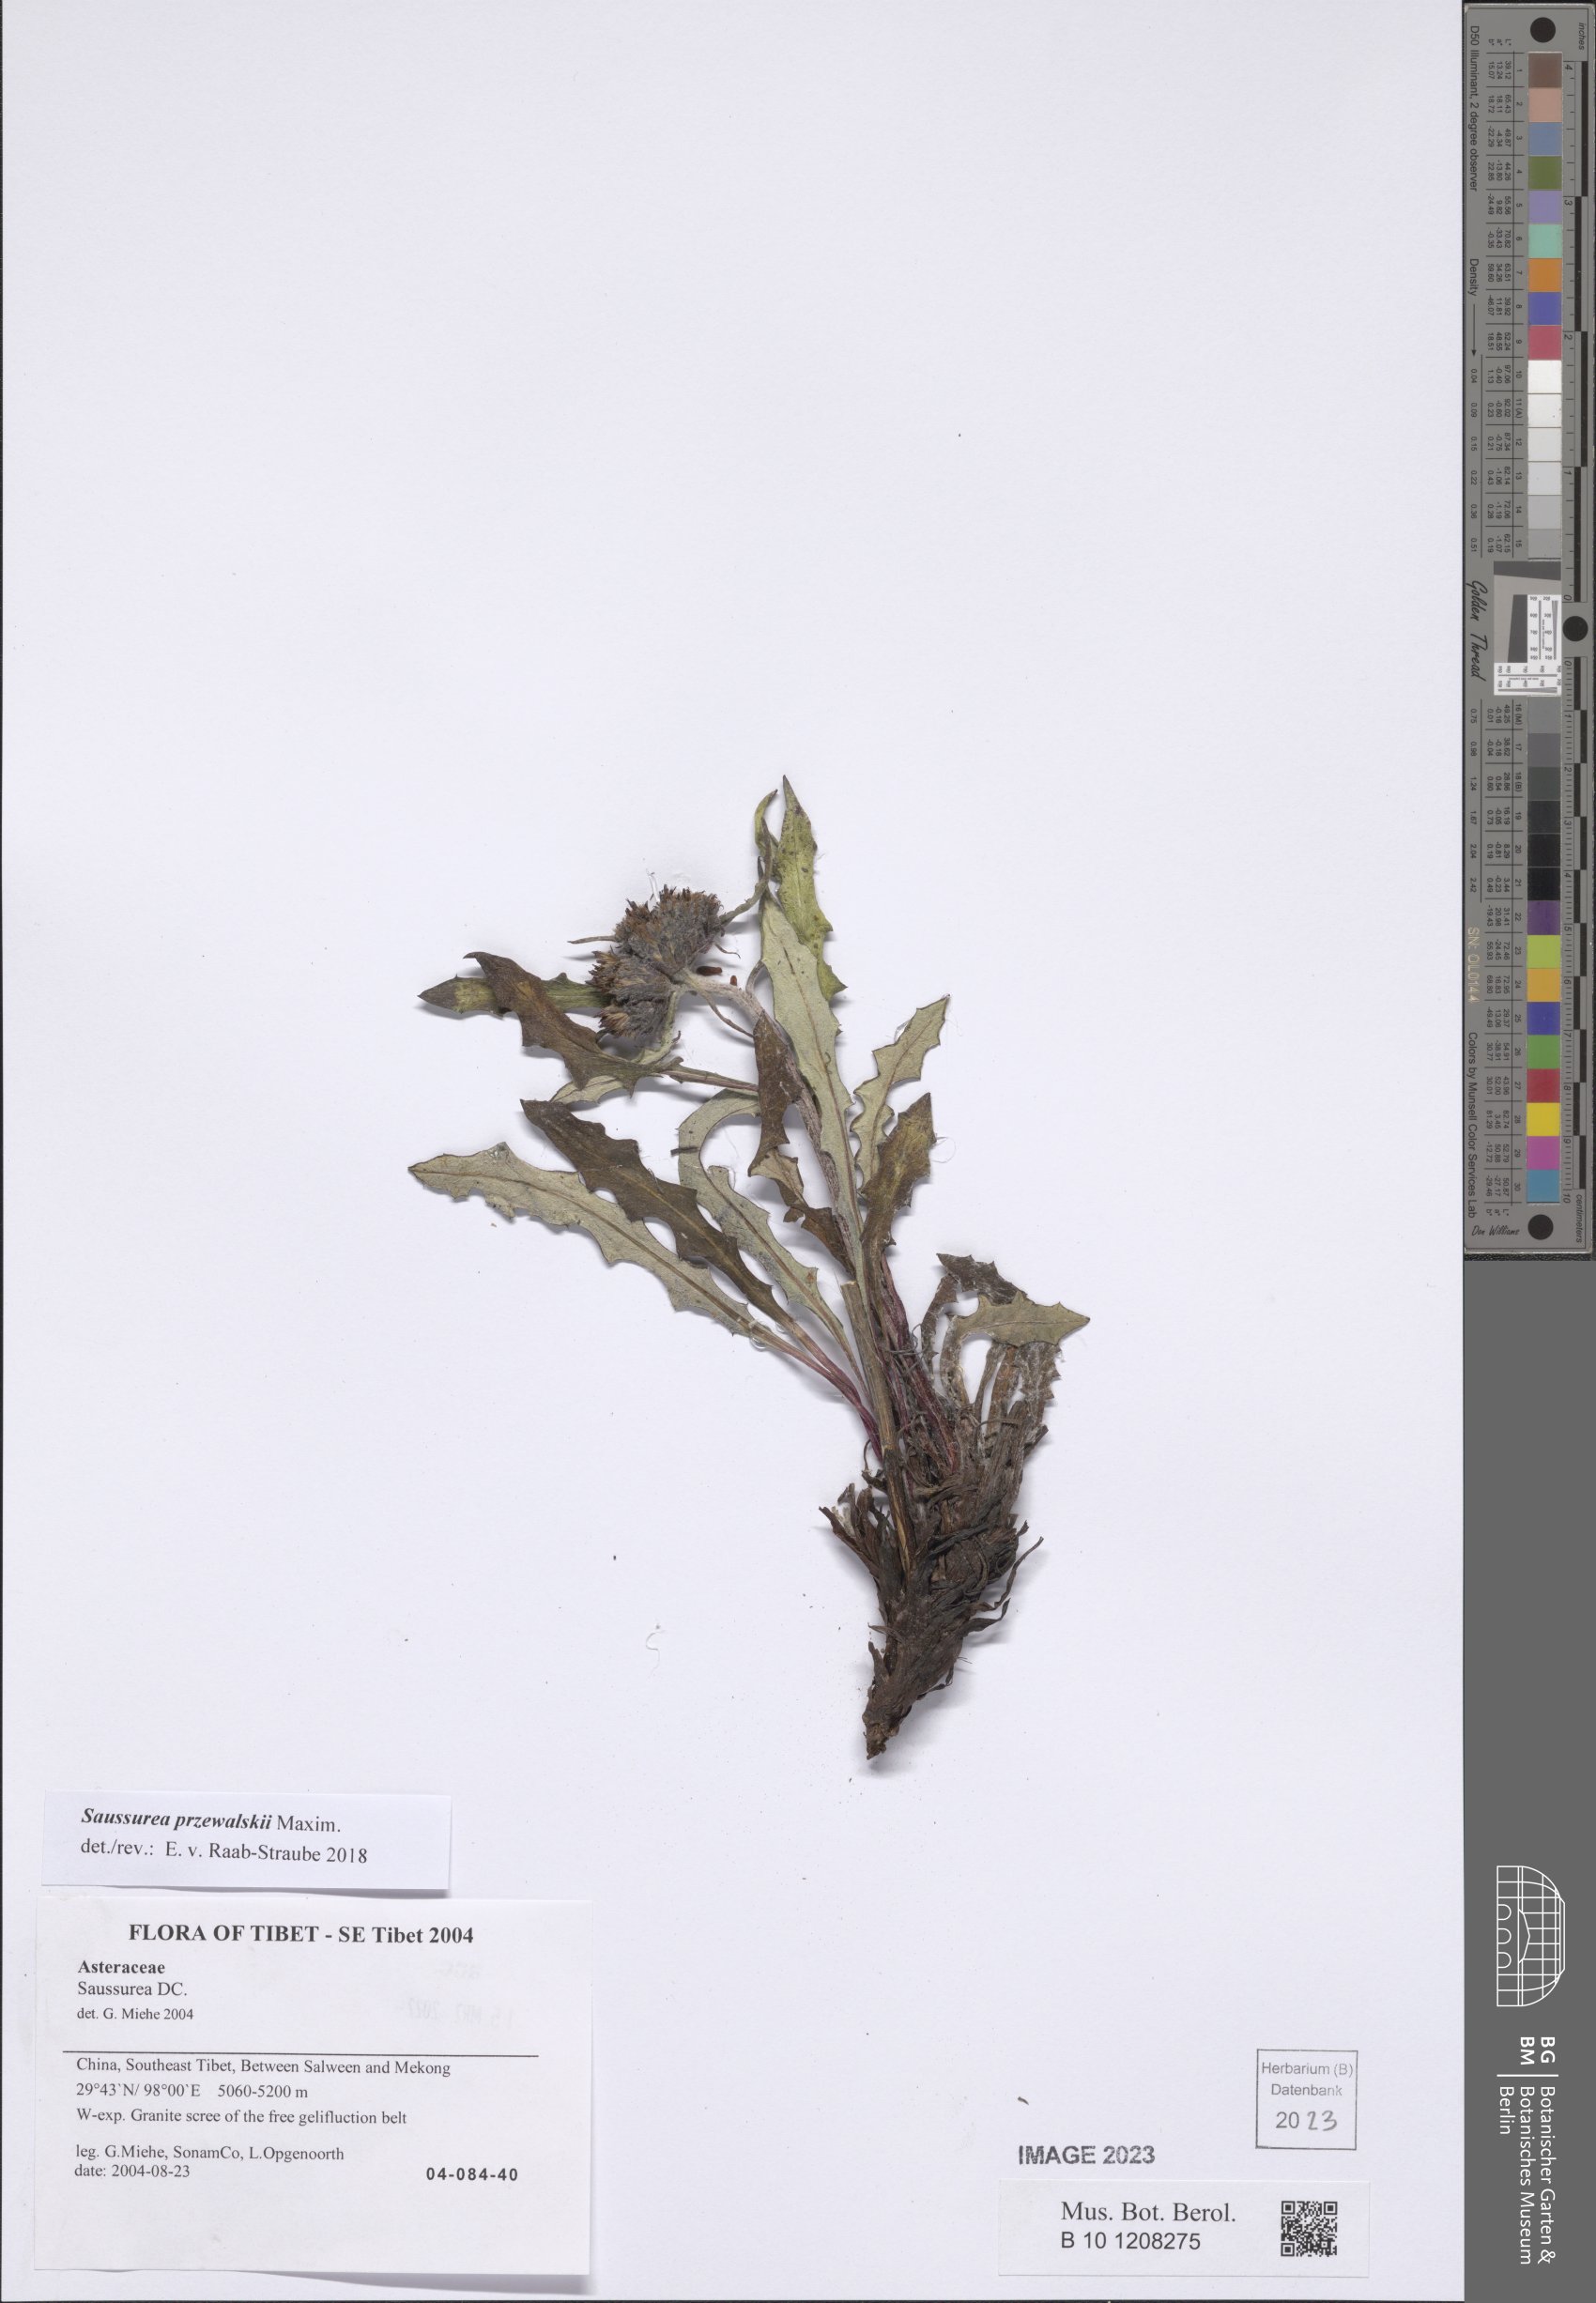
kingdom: Plantae
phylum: Tracheophyta
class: Magnoliopsida
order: Asterales
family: Asteraceae
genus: Saussurea
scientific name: Saussurea przewalskii
